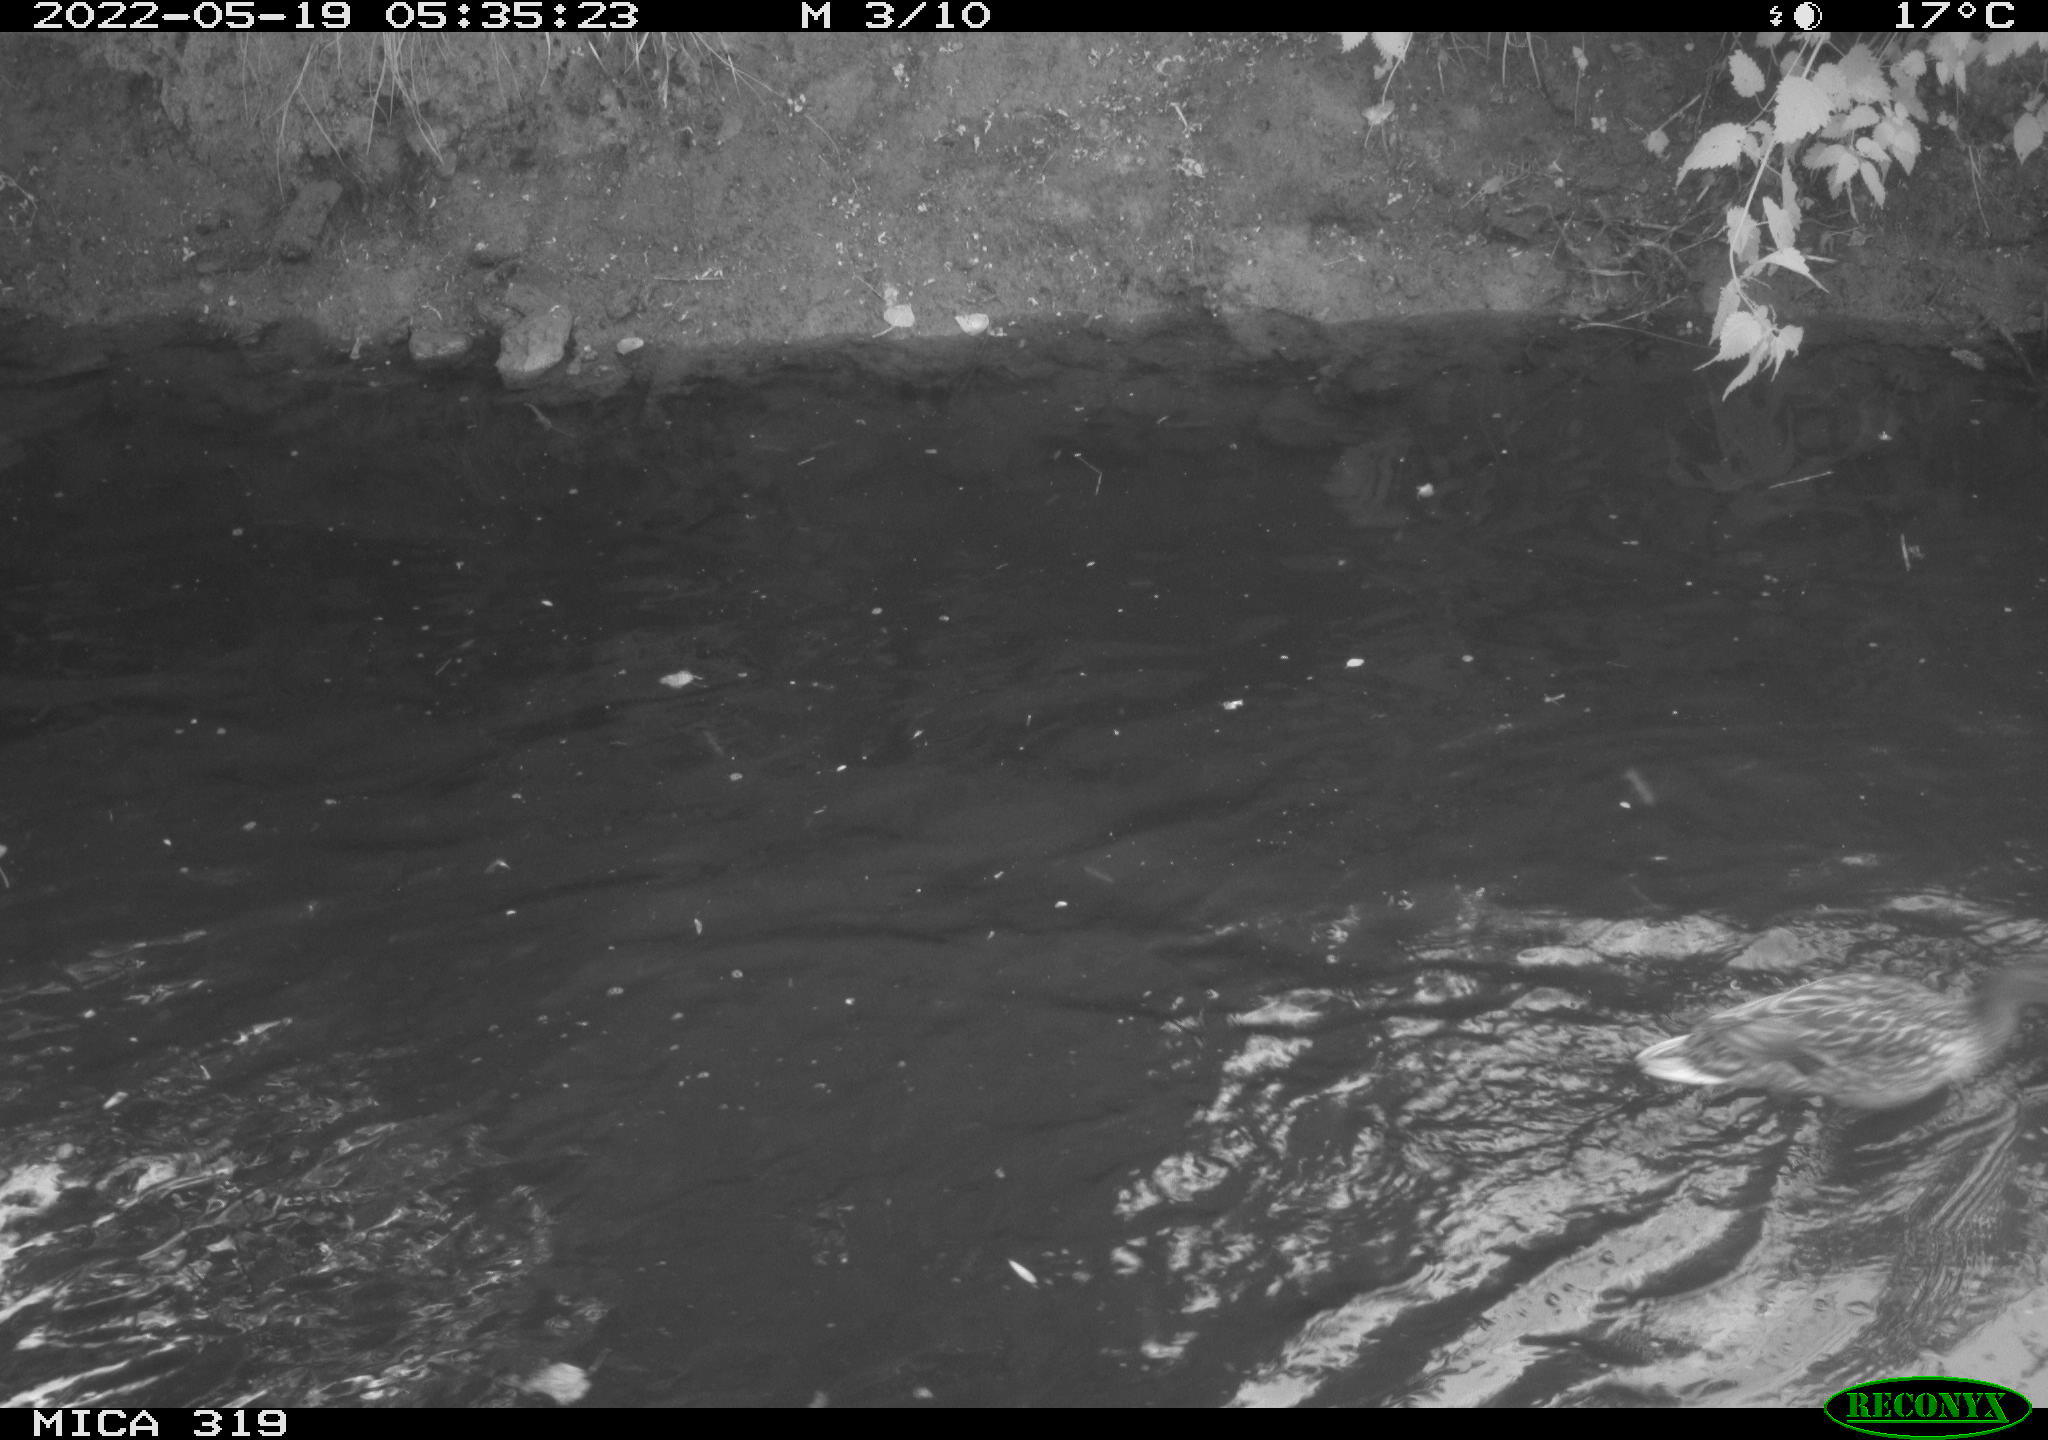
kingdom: Animalia
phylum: Chordata
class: Aves
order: Anseriformes
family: Anatidae
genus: Anas
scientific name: Anas
